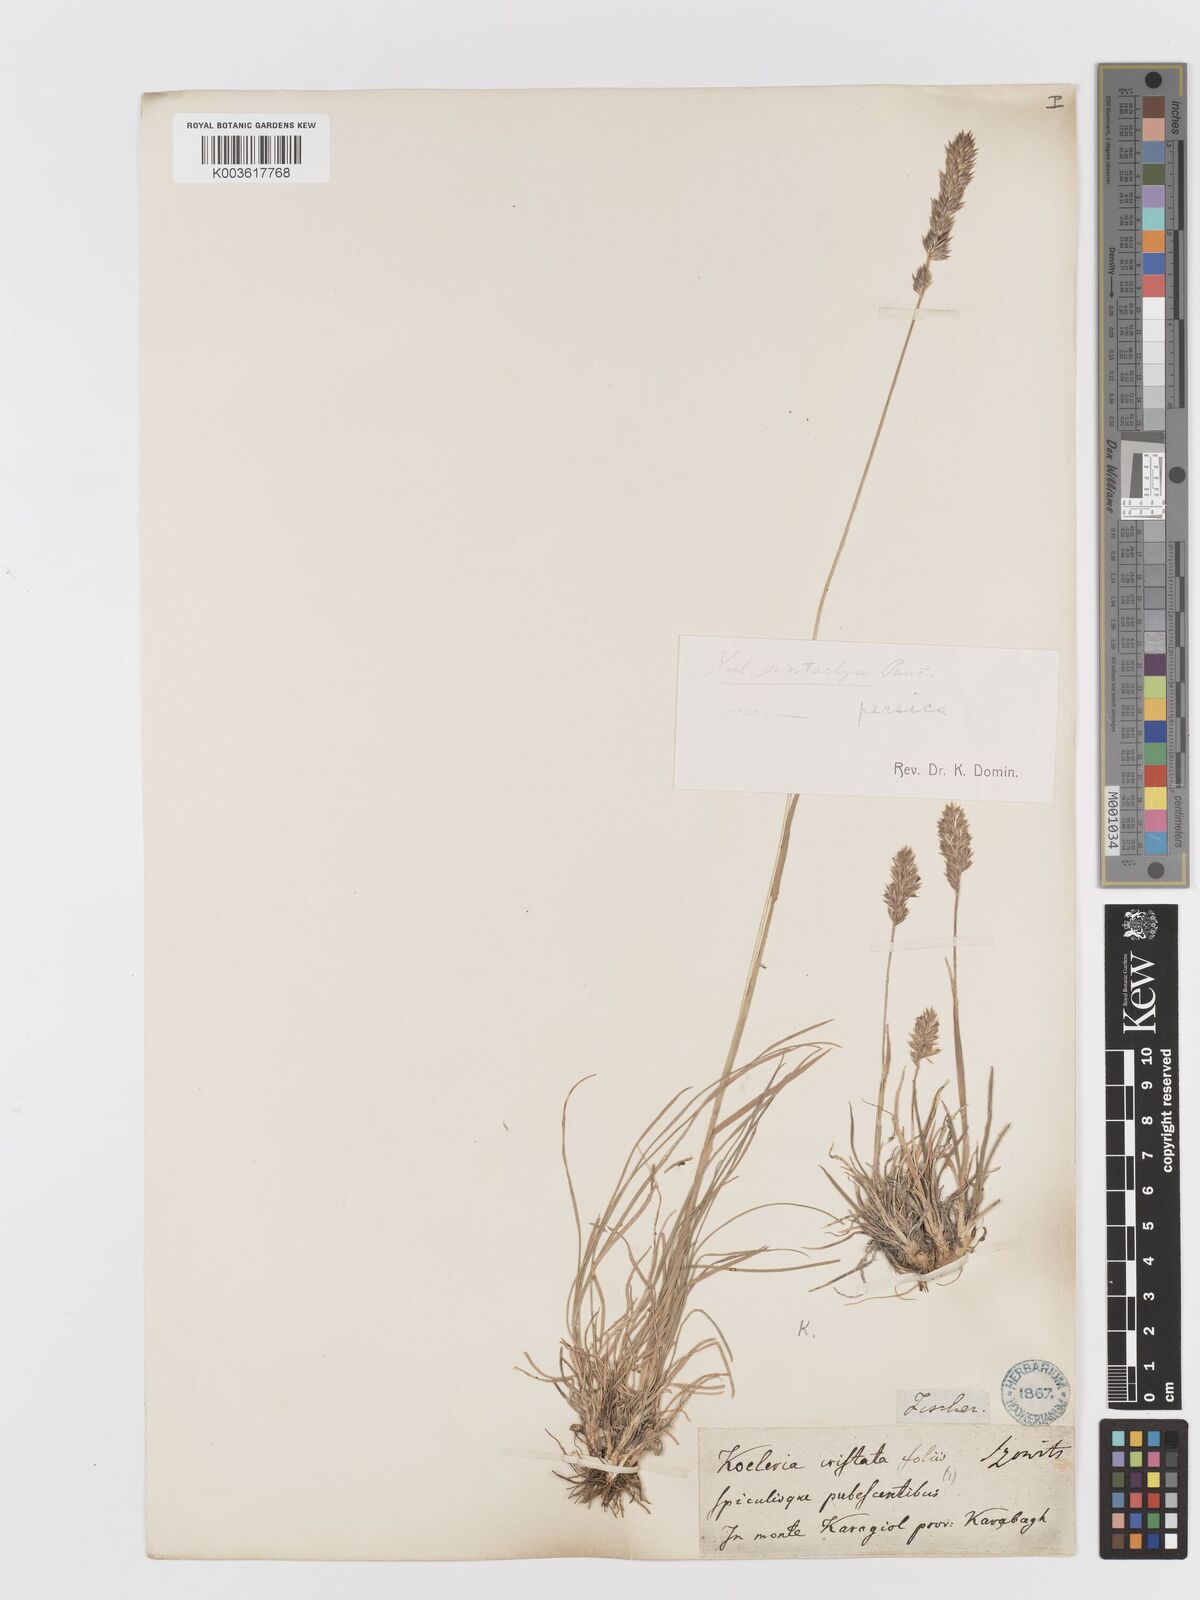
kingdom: Plantae
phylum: Tracheophyta
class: Liliopsida
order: Poales
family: Poaceae
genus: Koeleria
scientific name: Koeleria eriostachya
